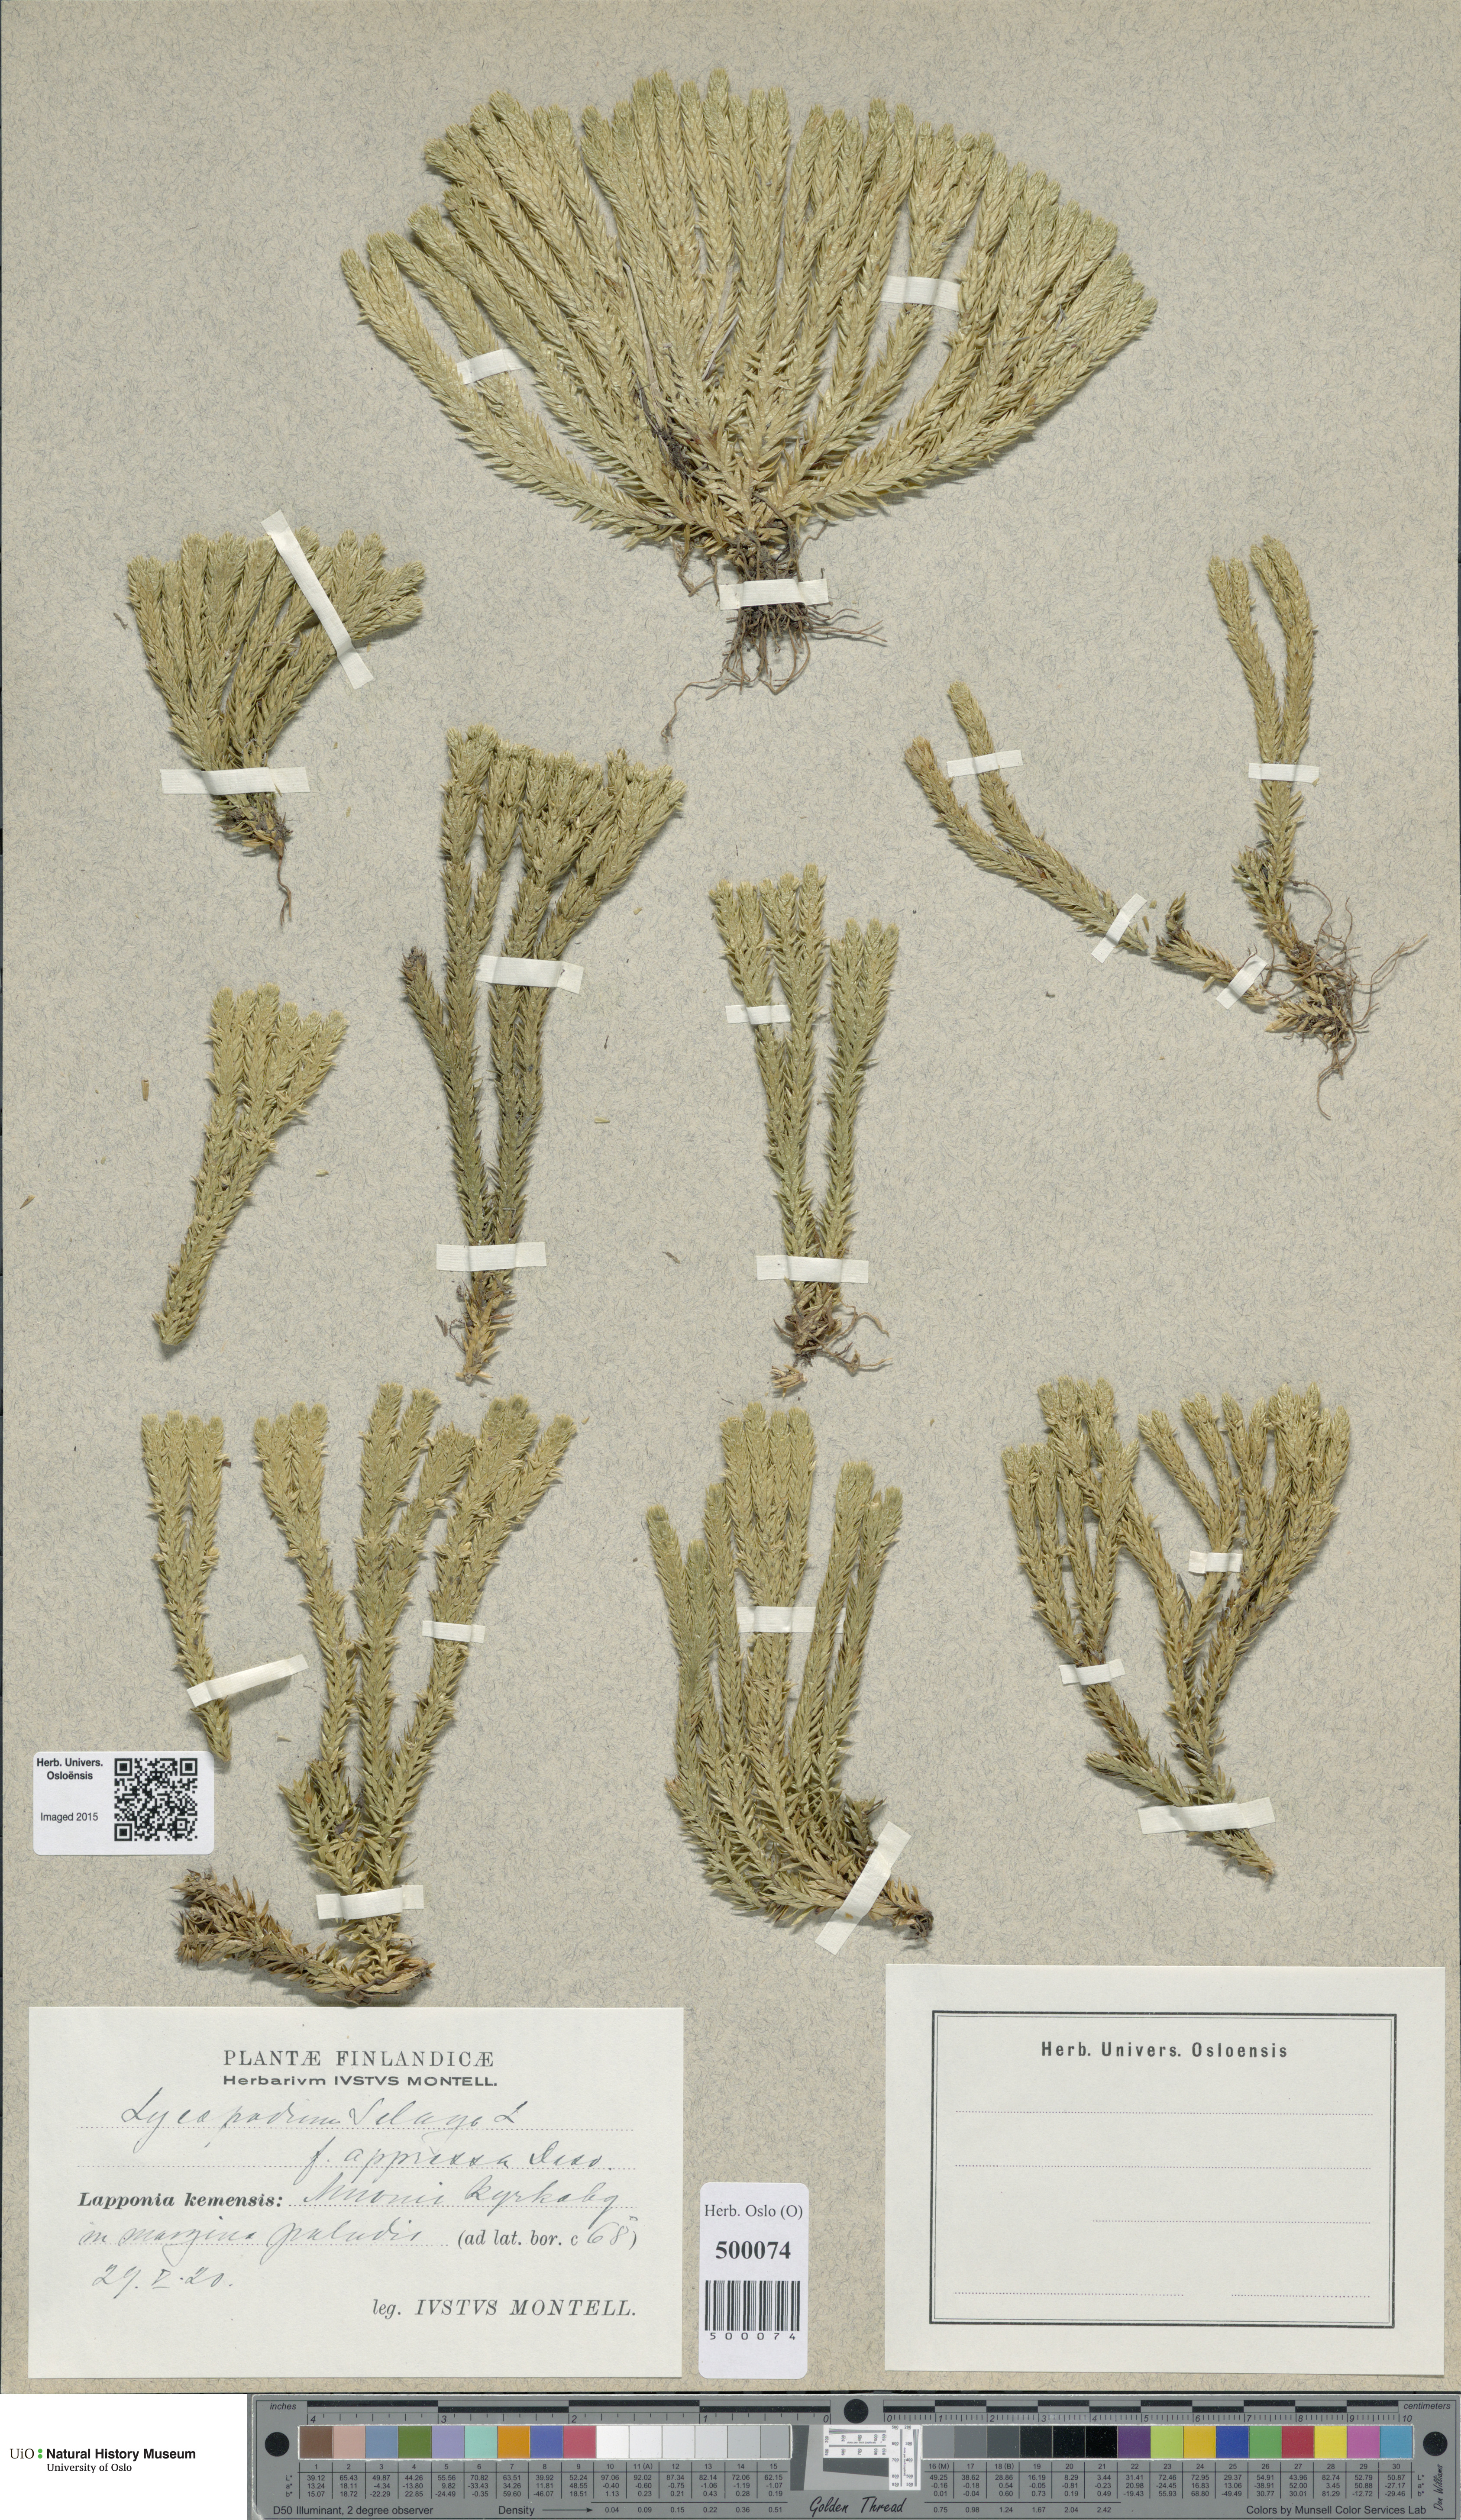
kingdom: Plantae
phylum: Tracheophyta
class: Lycopodiopsida
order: Lycopodiales
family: Lycopodiaceae
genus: Huperzia
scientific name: Huperzia selago
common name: Northern firmoss
